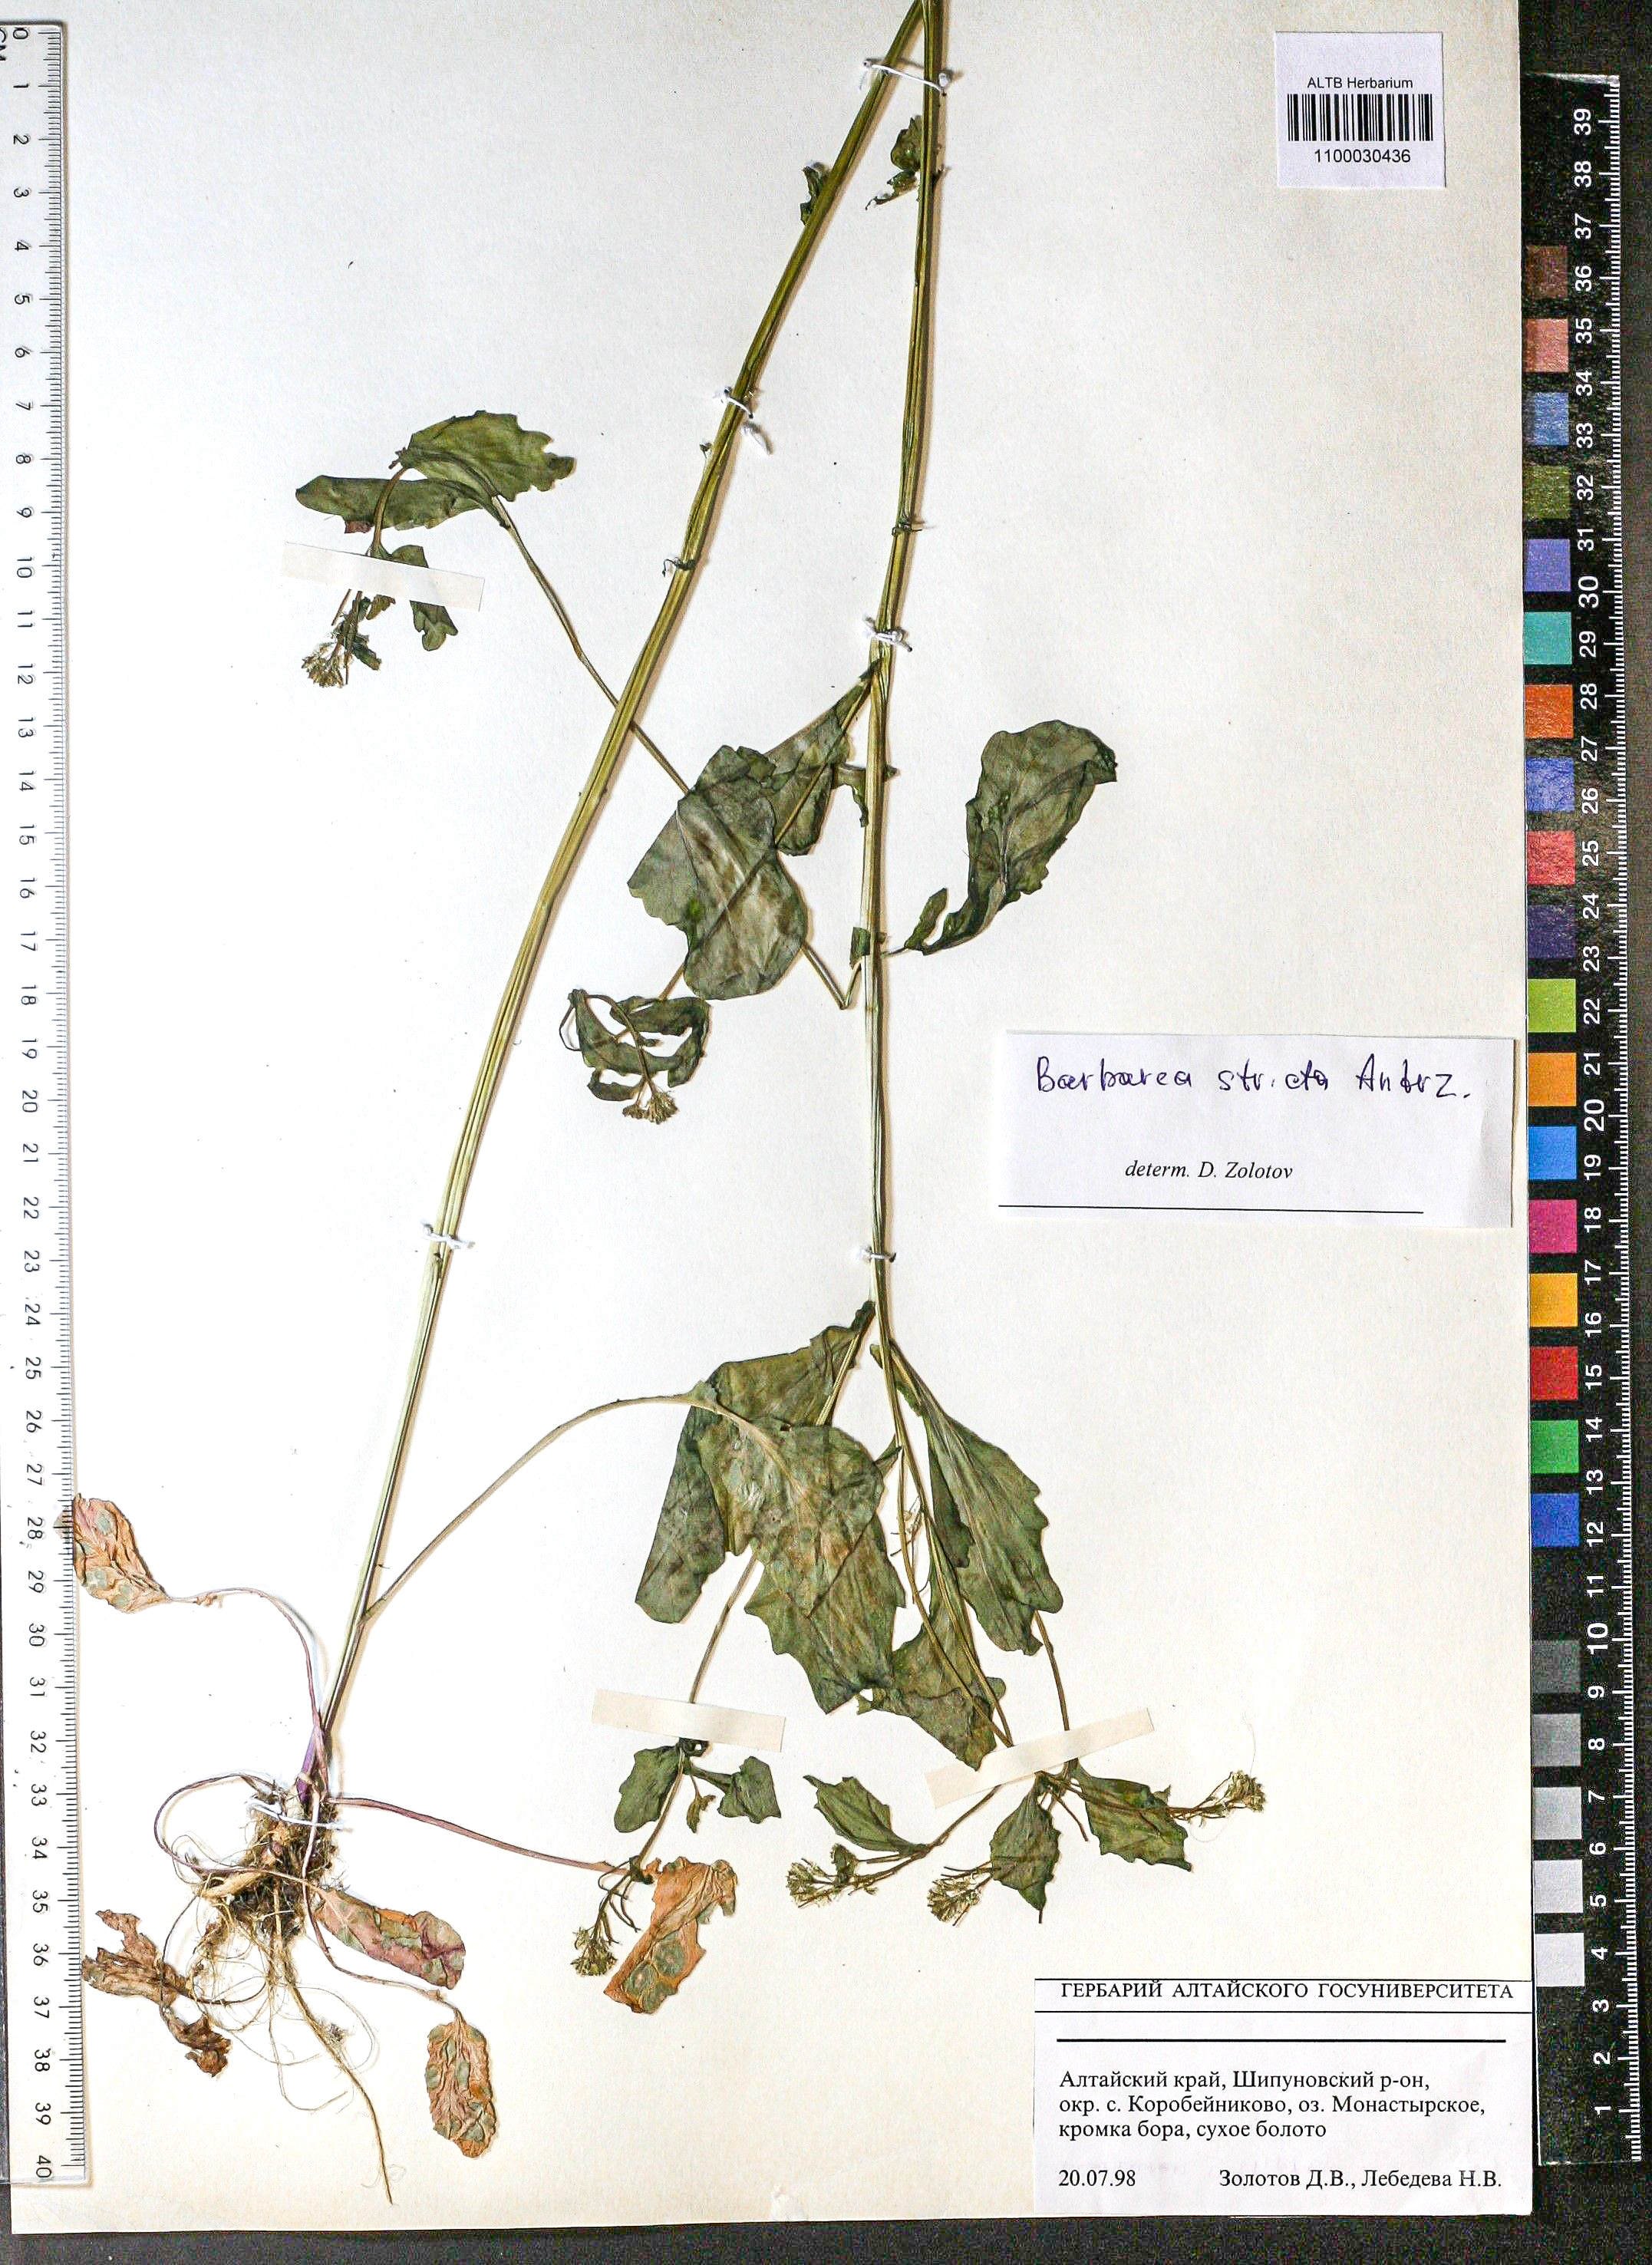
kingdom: Plantae
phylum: Tracheophyta
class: Magnoliopsida
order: Brassicales
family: Brassicaceae
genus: Barbarea
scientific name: Barbarea vulgaris
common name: Cressy-greens
